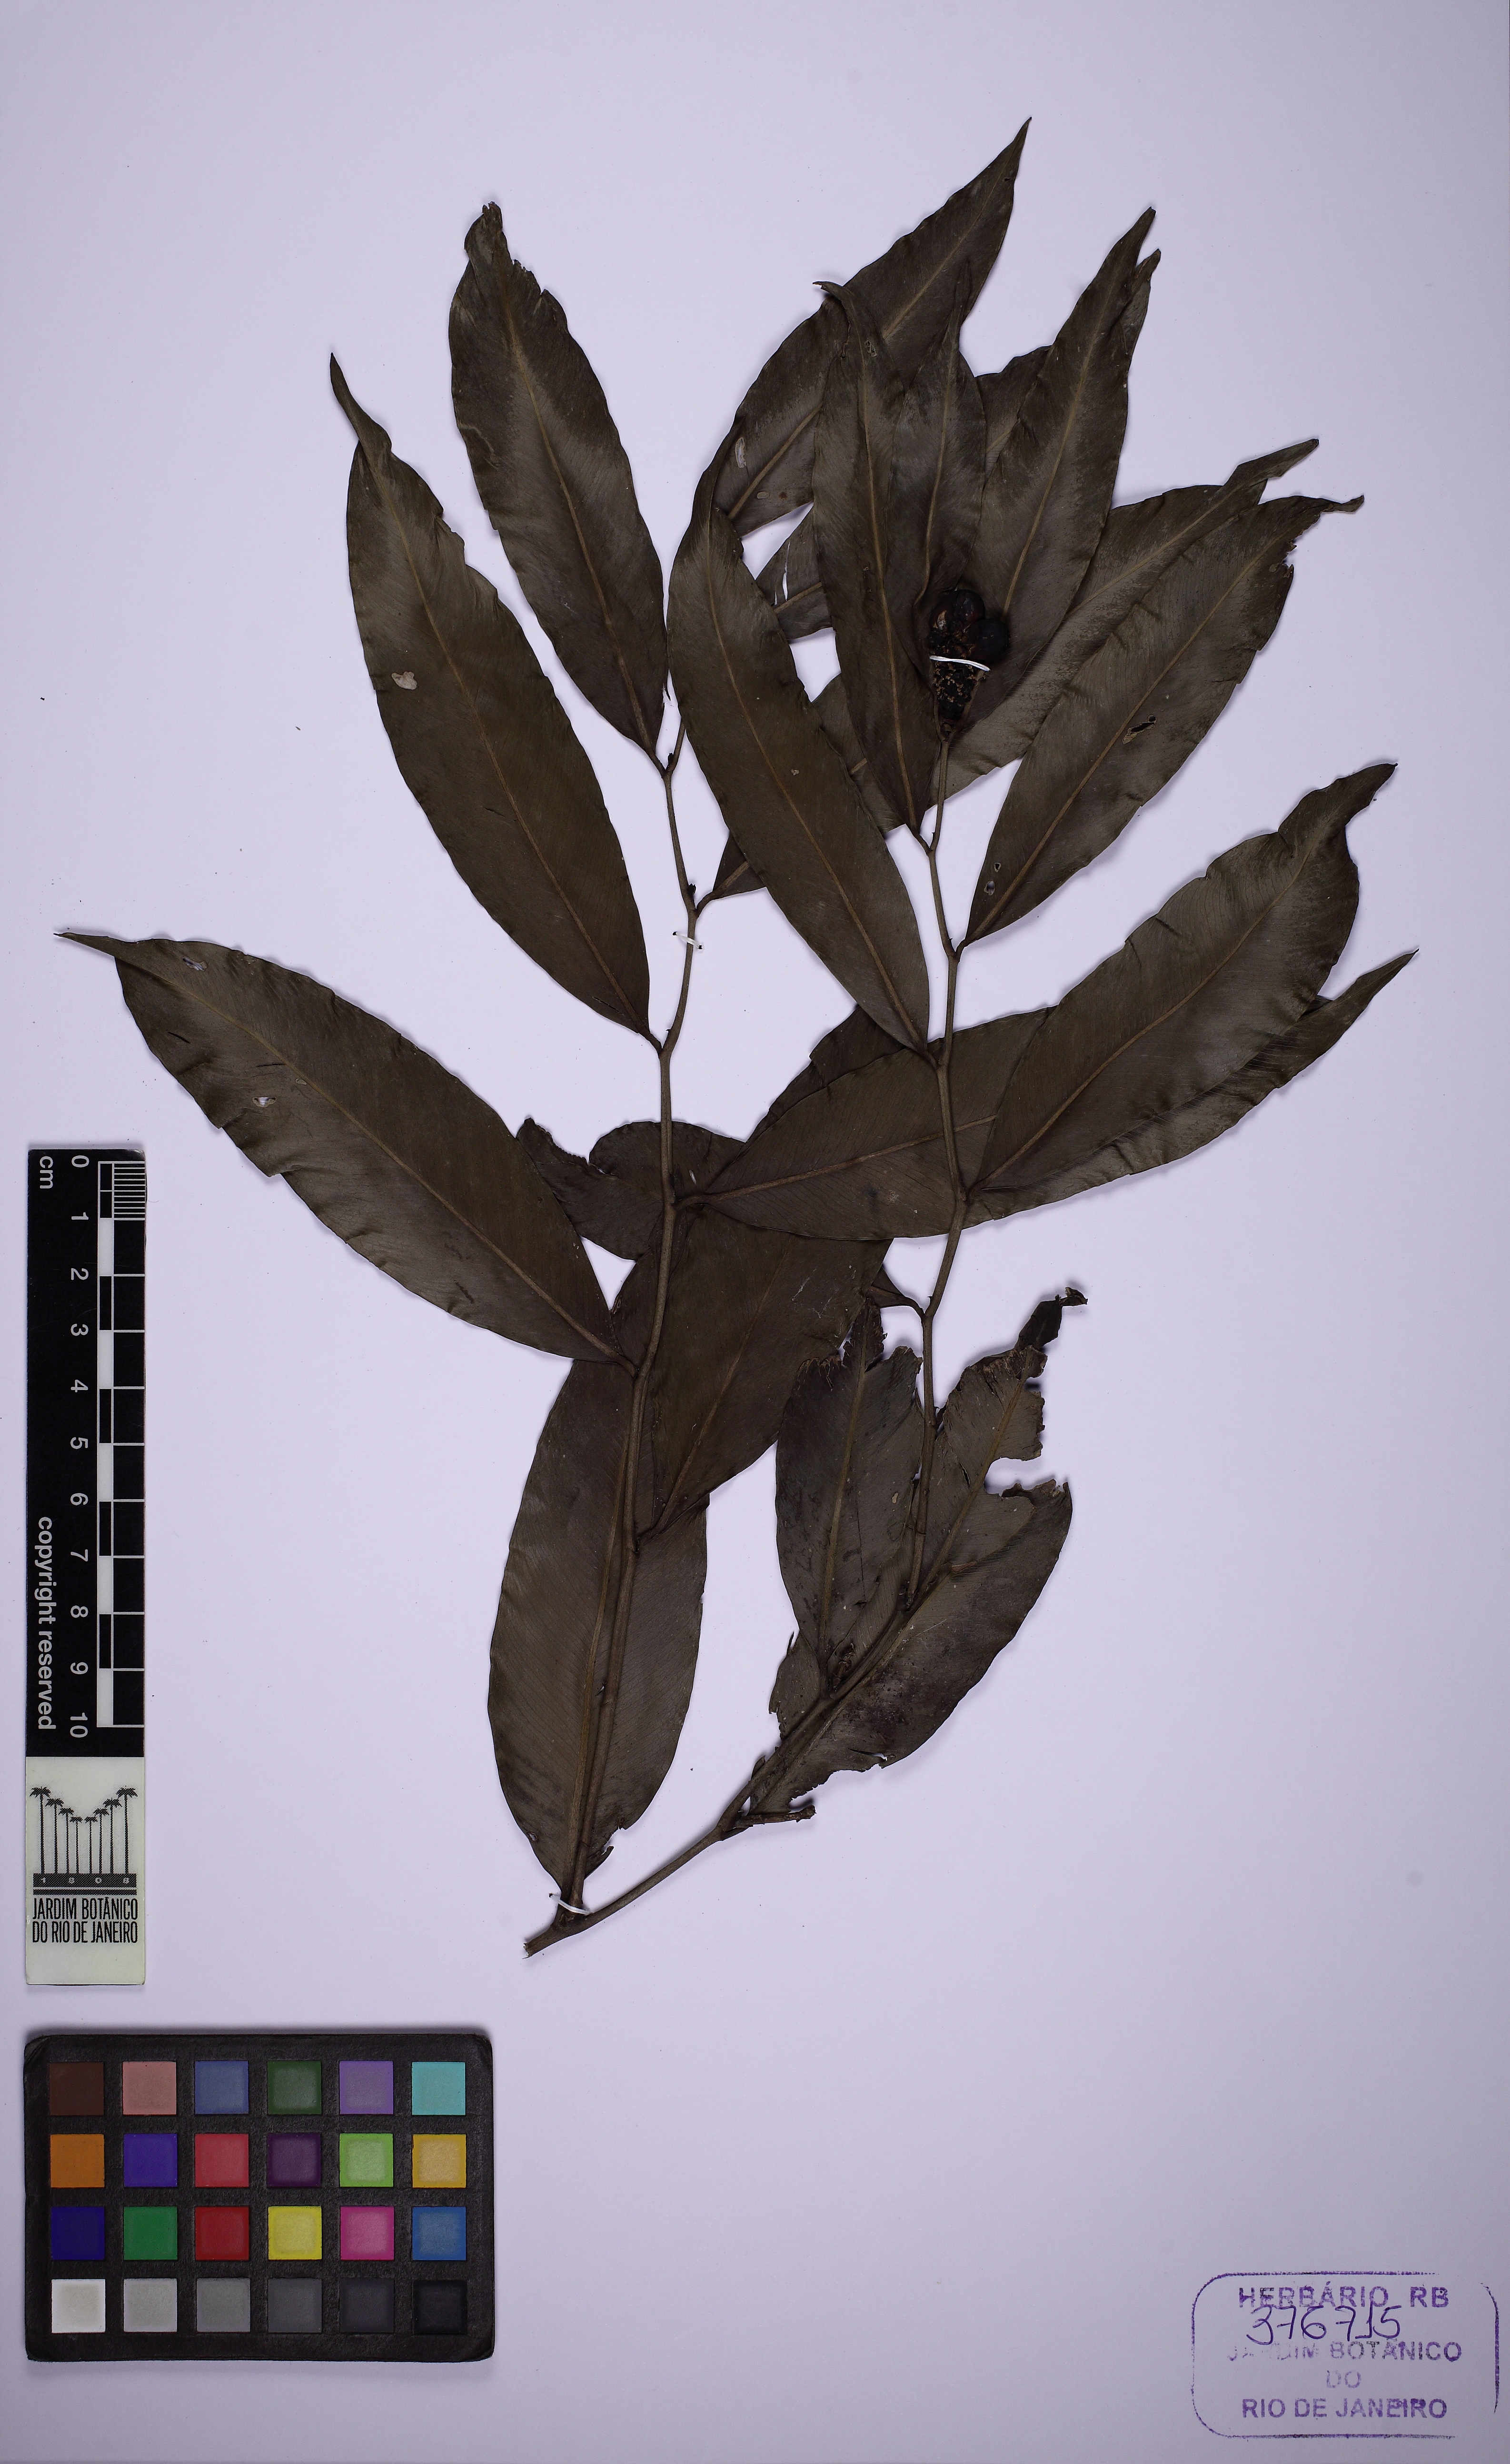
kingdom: Plantae
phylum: Tracheophyta
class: Liliopsida
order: Alismatales
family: Araceae
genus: Heteropsis
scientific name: Heteropsis linearis
